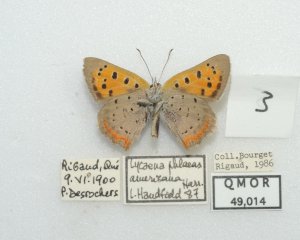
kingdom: Animalia
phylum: Arthropoda
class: Insecta
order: Lepidoptera
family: Lycaenidae
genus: Lycaena
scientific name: Lycaena phlaeas
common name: American Copper
